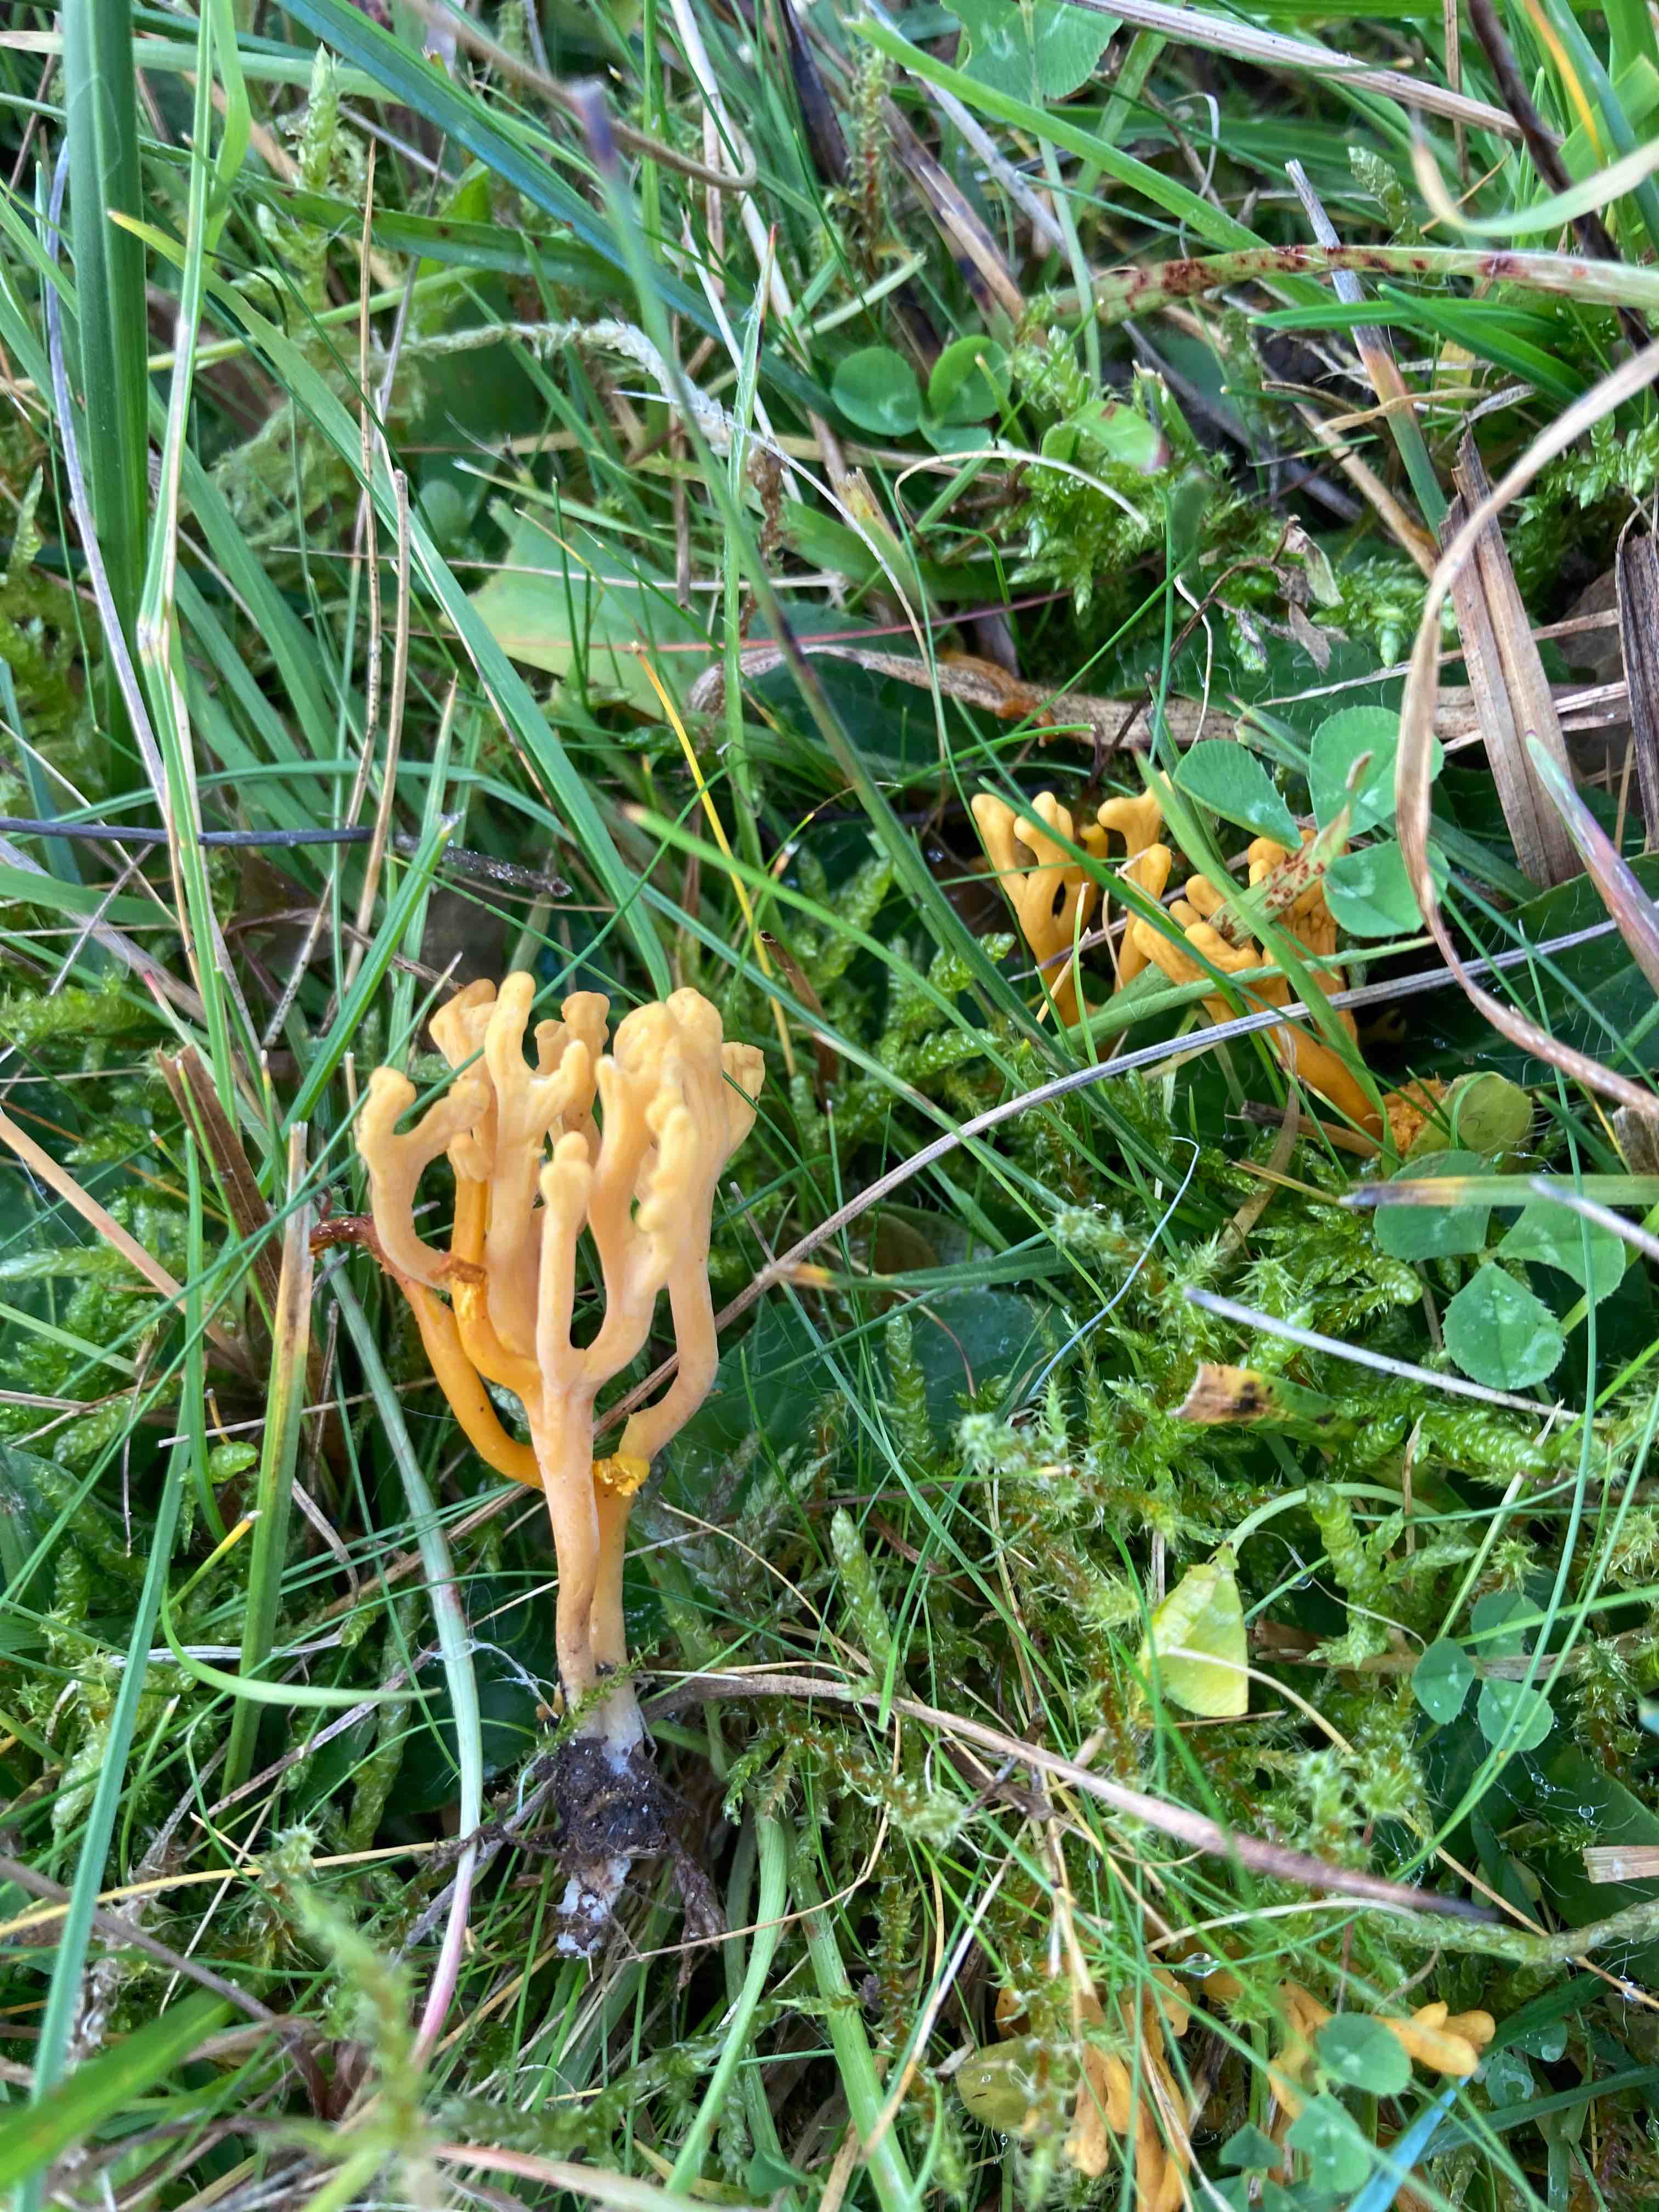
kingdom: Fungi
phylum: Basidiomycota
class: Agaricomycetes
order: Agaricales
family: Clavariaceae
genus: Clavulinopsis
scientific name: Clavulinopsis corniculata
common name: eng-køllesvamp
